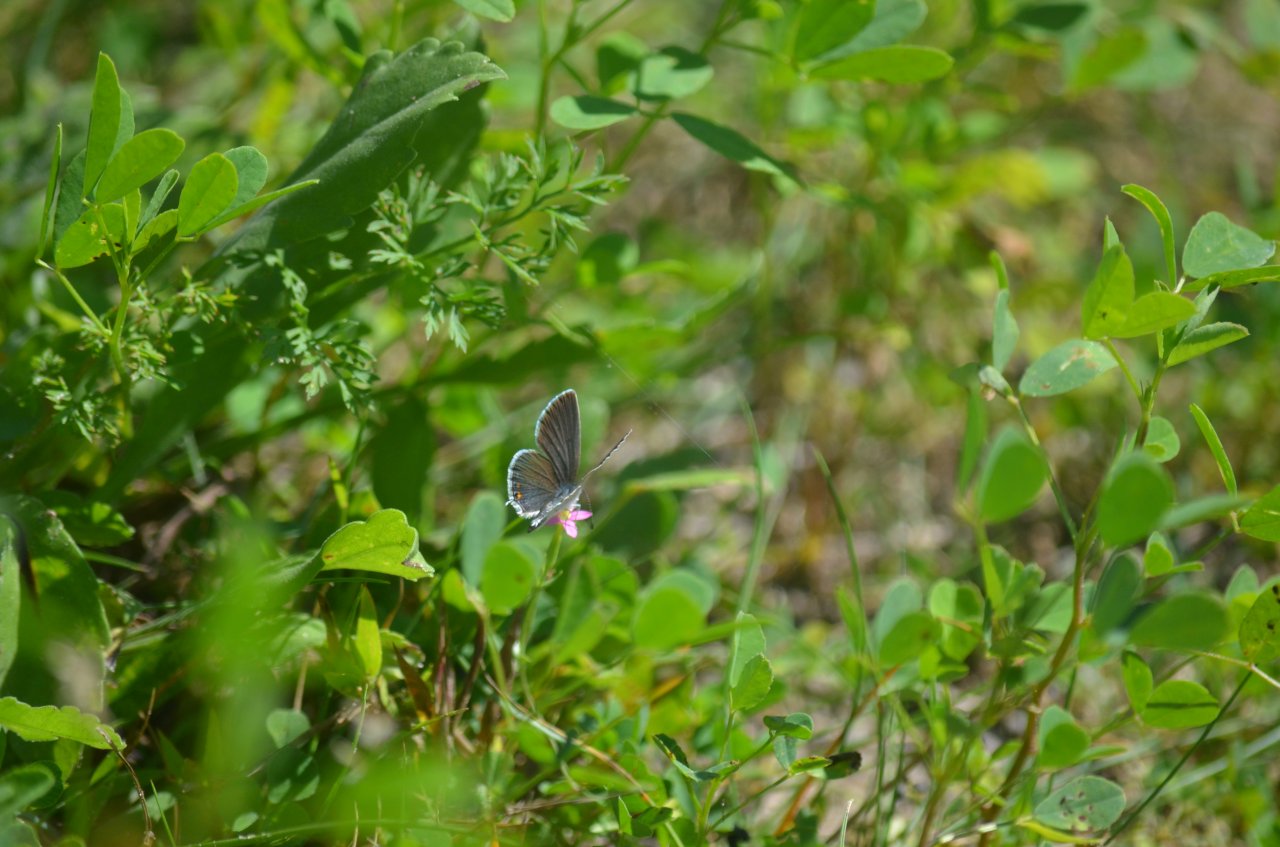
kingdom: Animalia
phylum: Arthropoda
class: Insecta
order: Lepidoptera
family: Lycaenidae
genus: Elkalyce
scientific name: Elkalyce comyntas
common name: Eastern Tailed-Blue
